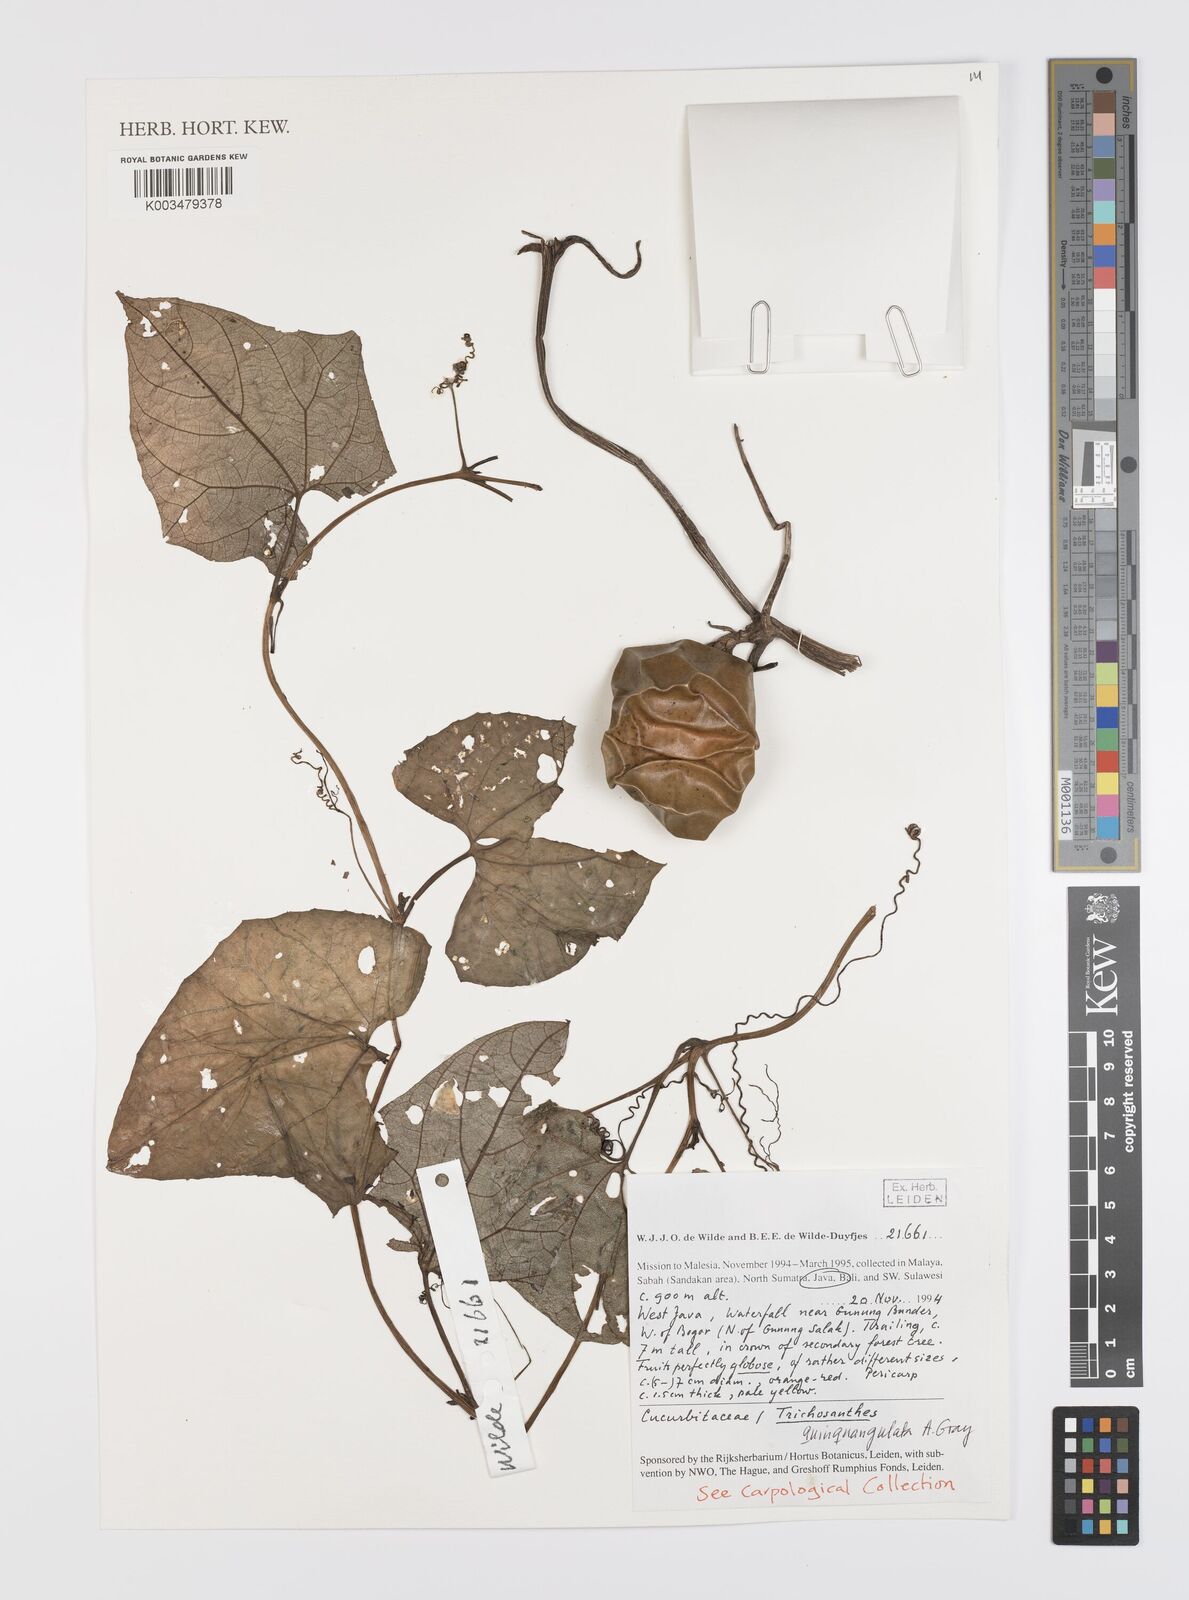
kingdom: Plantae
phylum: Tracheophyta
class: Magnoliopsida
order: Cucurbitales
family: Cucurbitaceae
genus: Trichosanthes
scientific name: Trichosanthes tricuspidata
